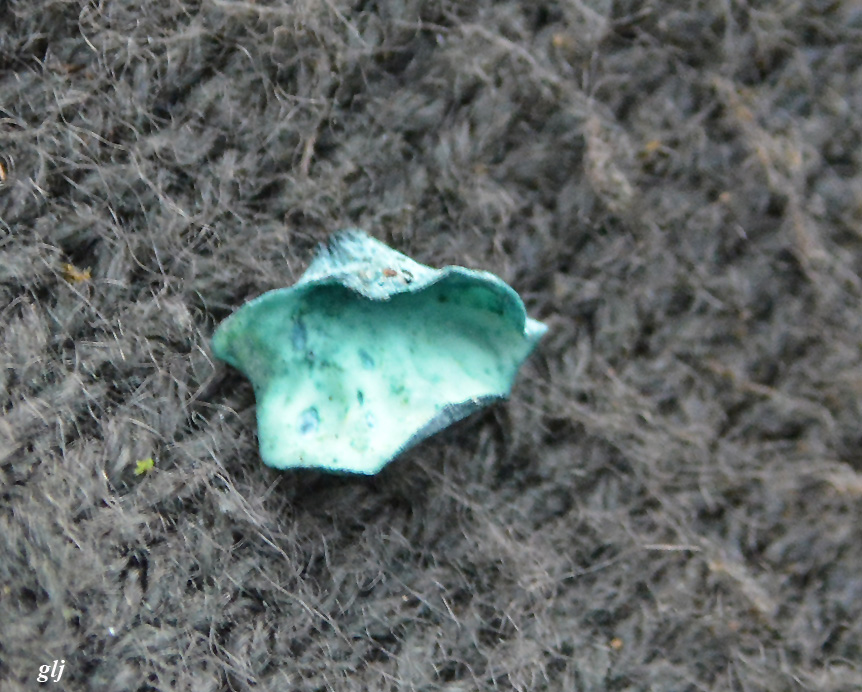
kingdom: Fungi
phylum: Ascomycota
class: Leotiomycetes
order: Helotiales
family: Chlorociboriaceae
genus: Chlorociboria
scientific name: Chlorociboria aeruginascens
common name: almindelig grønskive
